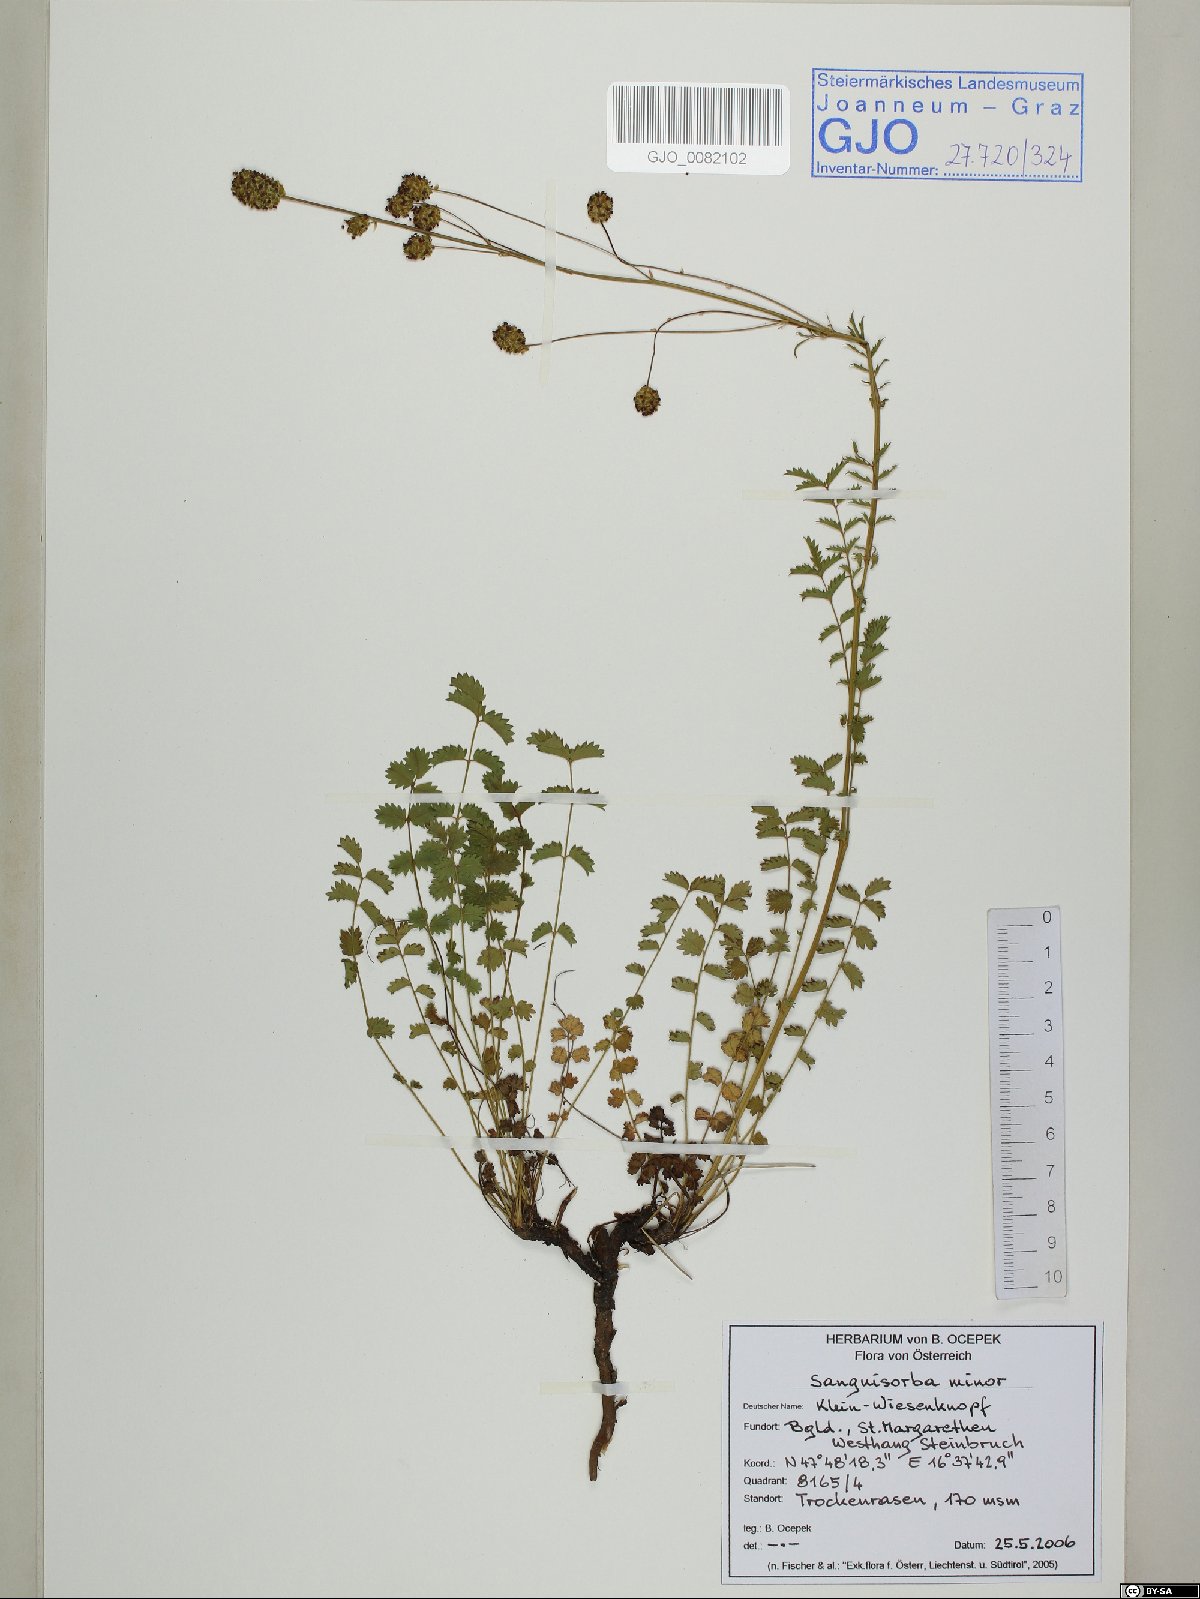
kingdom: Plantae
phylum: Tracheophyta
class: Magnoliopsida
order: Rosales
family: Rosaceae
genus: Poterium
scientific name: Poterium sanguisorba
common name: Salad burnet
